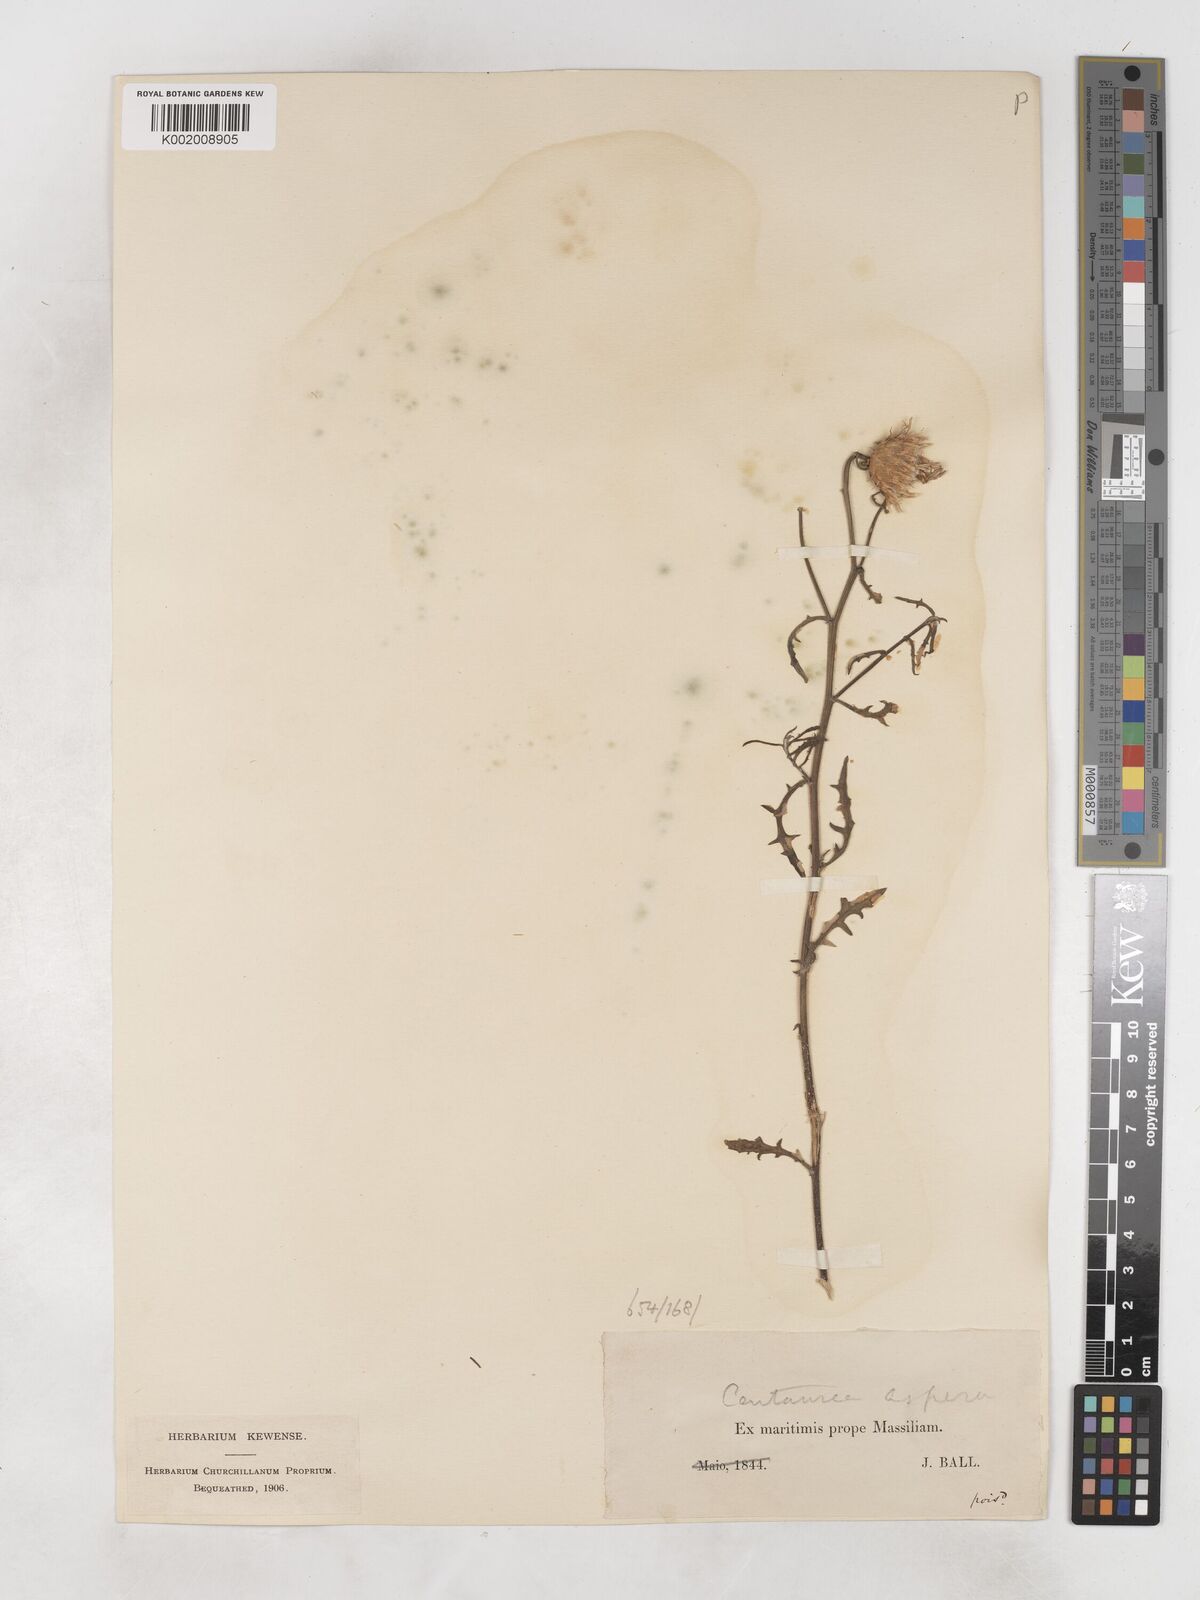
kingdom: Plantae
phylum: Tracheophyta
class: Magnoliopsida
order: Asterales
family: Asteraceae
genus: Centaurea
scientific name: Centaurea aspera
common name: Rough star-thistle
